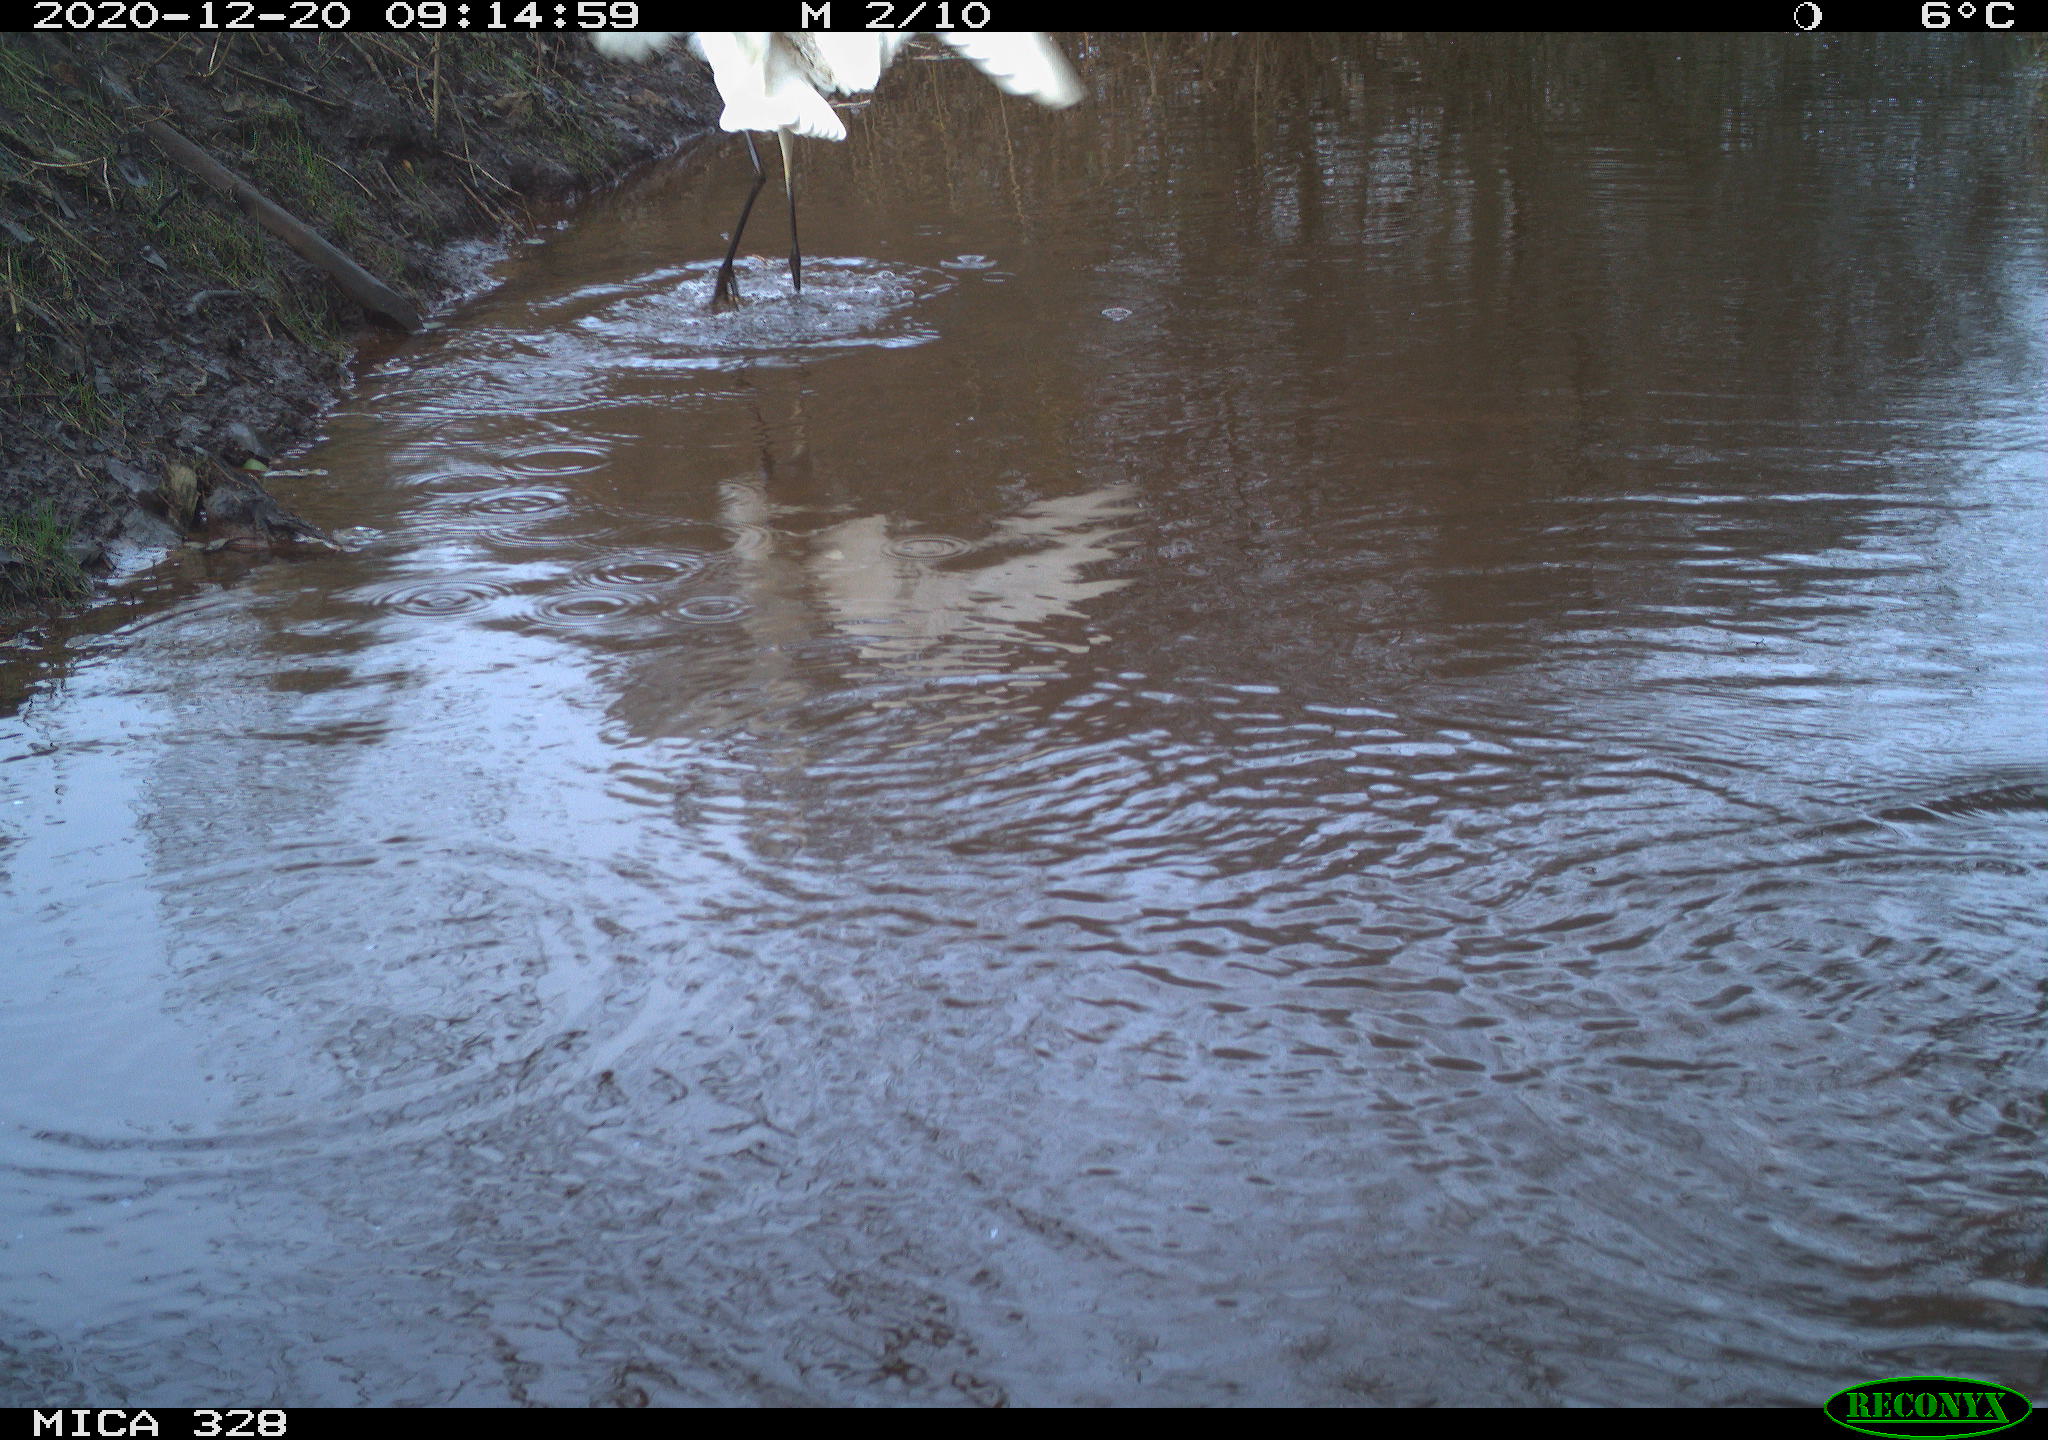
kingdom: Animalia
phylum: Chordata
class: Aves
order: Pelecaniformes
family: Ardeidae
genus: Ardea
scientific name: Ardea alba
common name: Great egret
